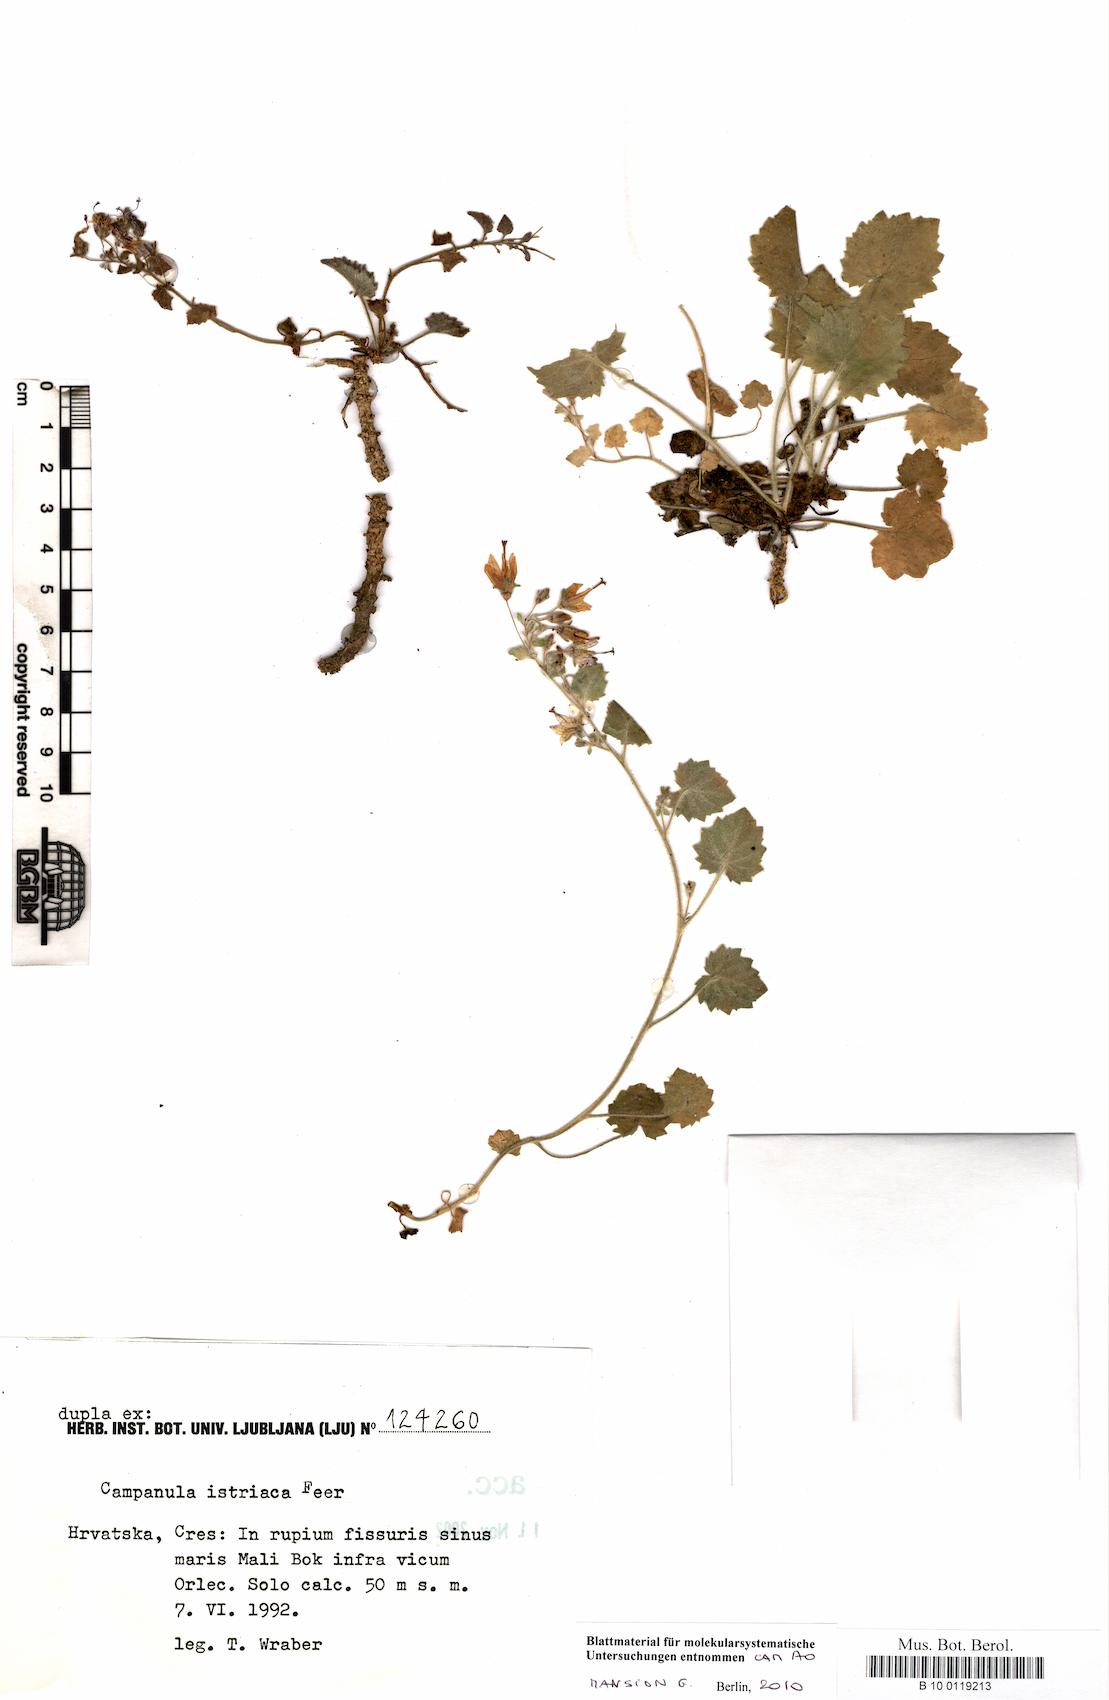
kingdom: Plantae
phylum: Tracheophyta
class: Magnoliopsida
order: Asterales
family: Campanulaceae
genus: Campanula
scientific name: Campanula fenestrellata
